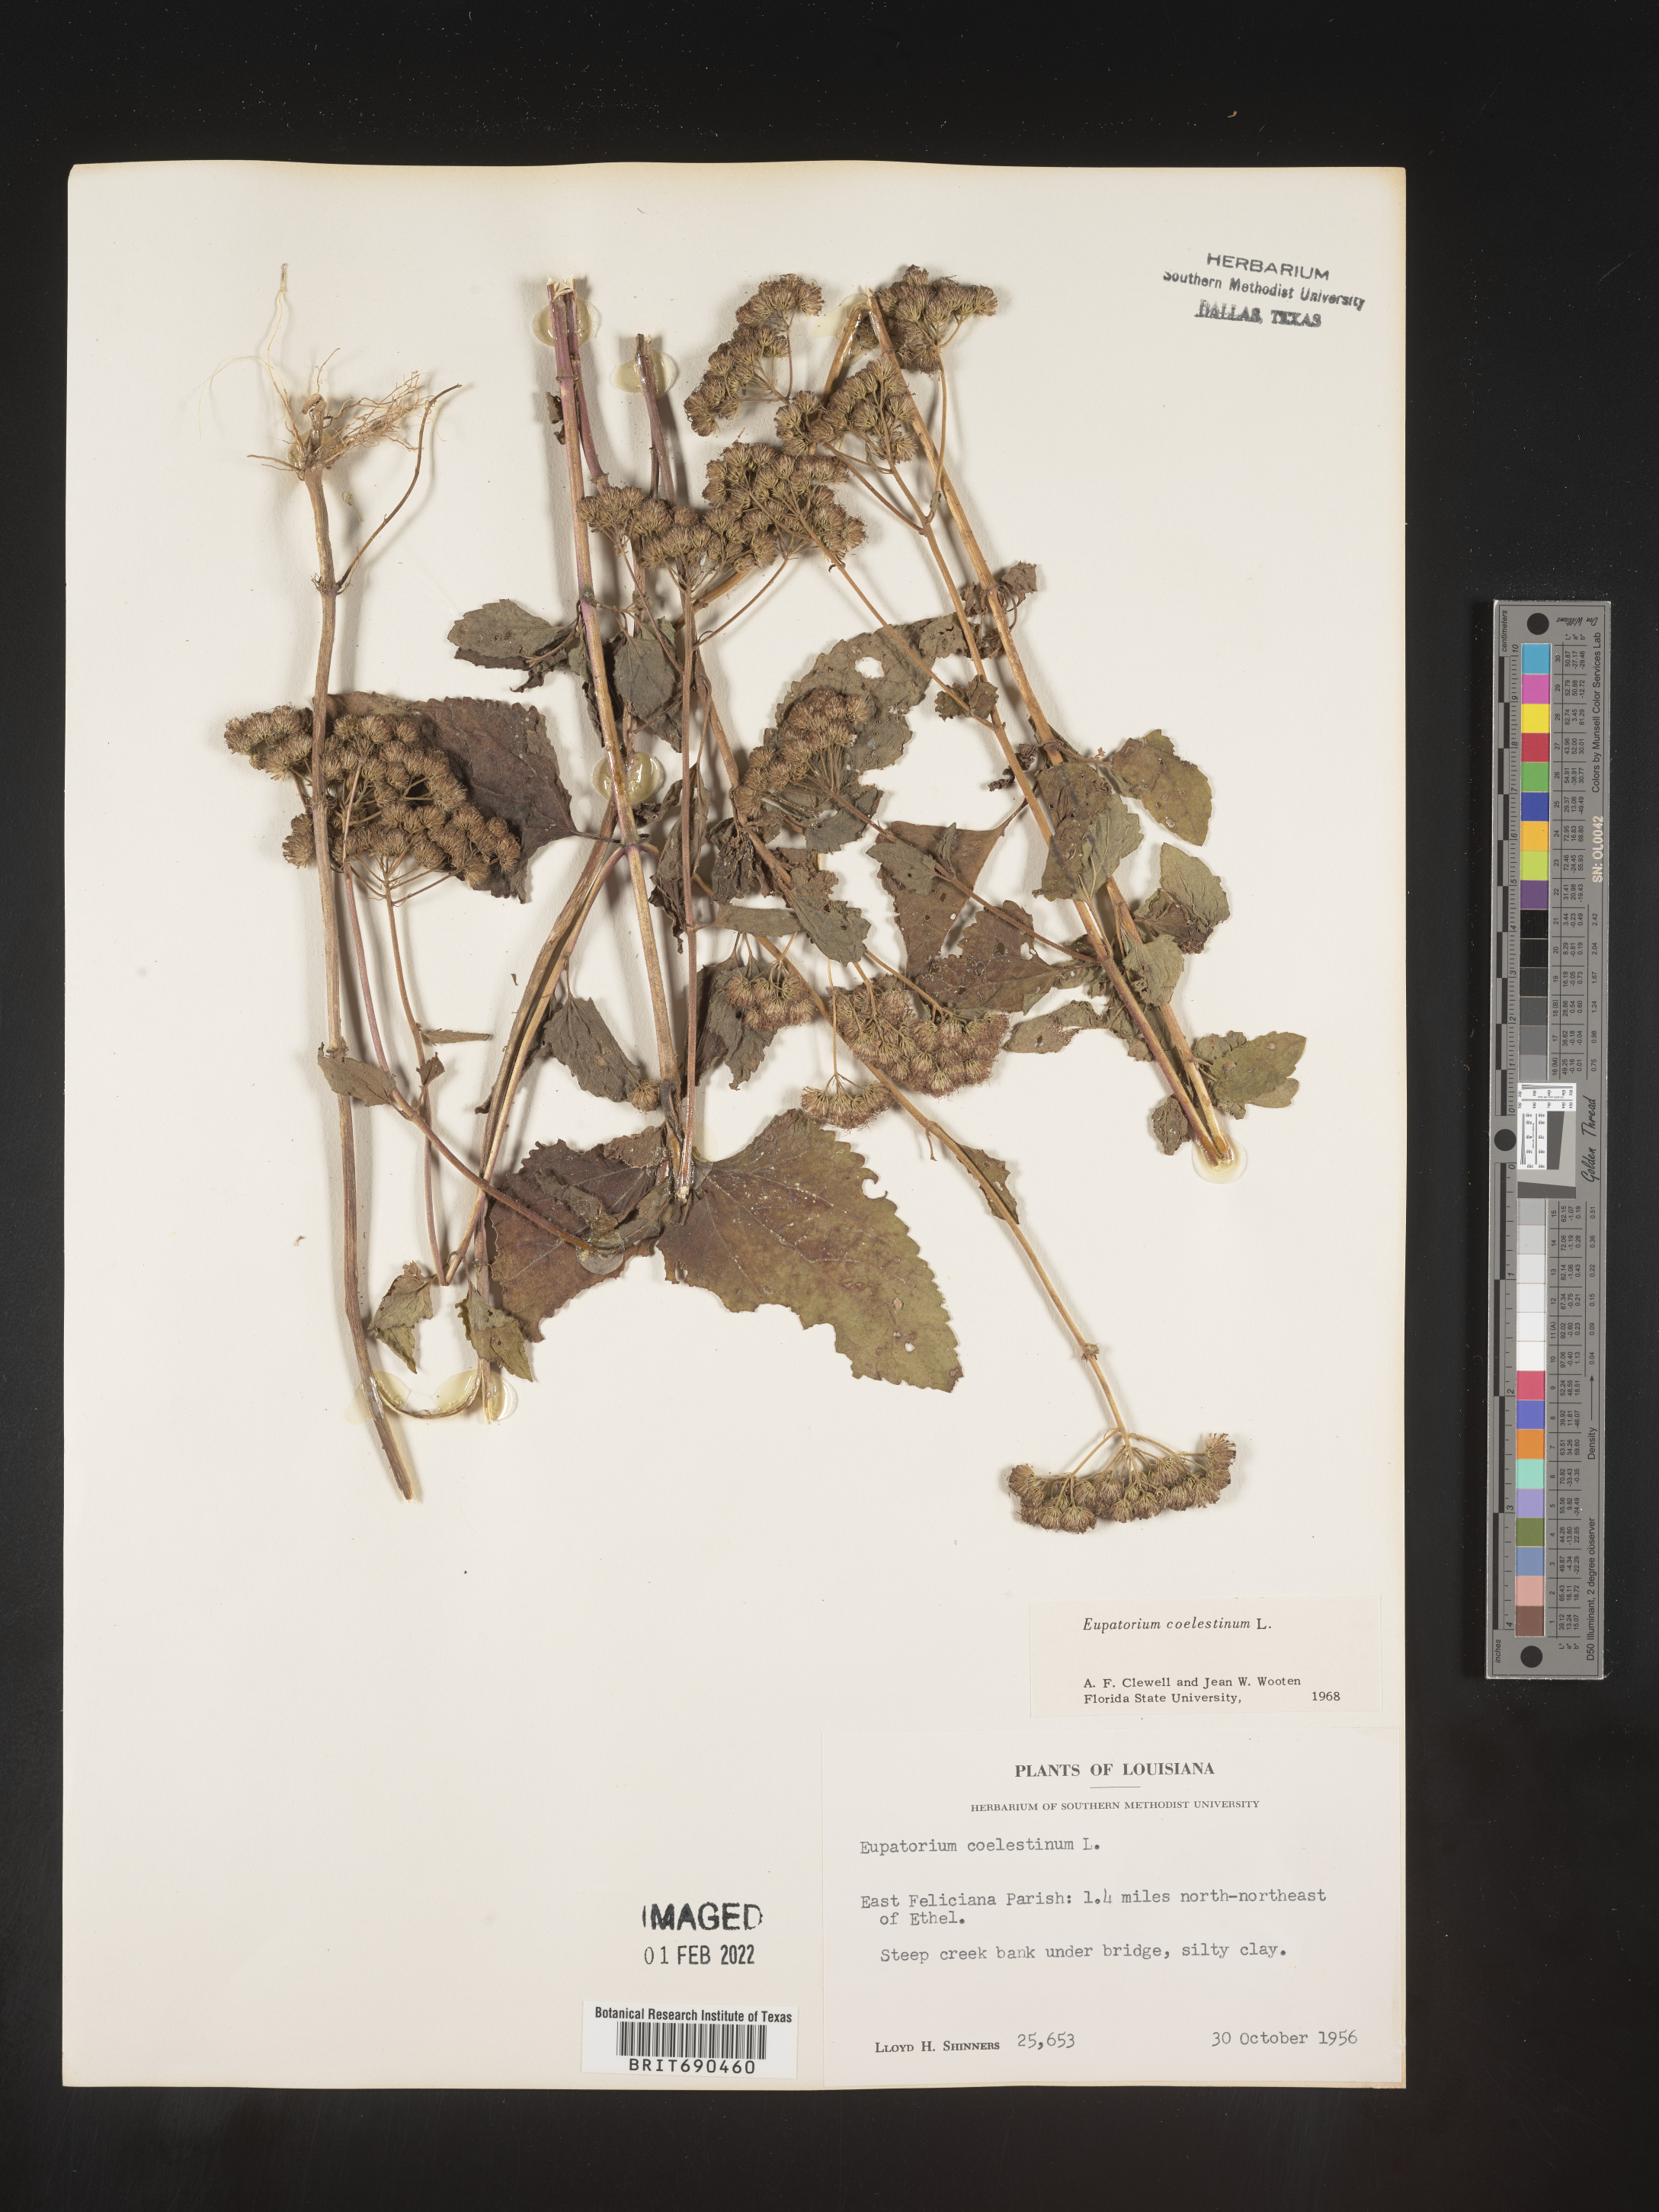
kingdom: Plantae
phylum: Tracheophyta
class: Magnoliopsida
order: Asterales
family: Asteraceae
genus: Conoclinium
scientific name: Conoclinium coelestinum
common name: Blue mistflower
